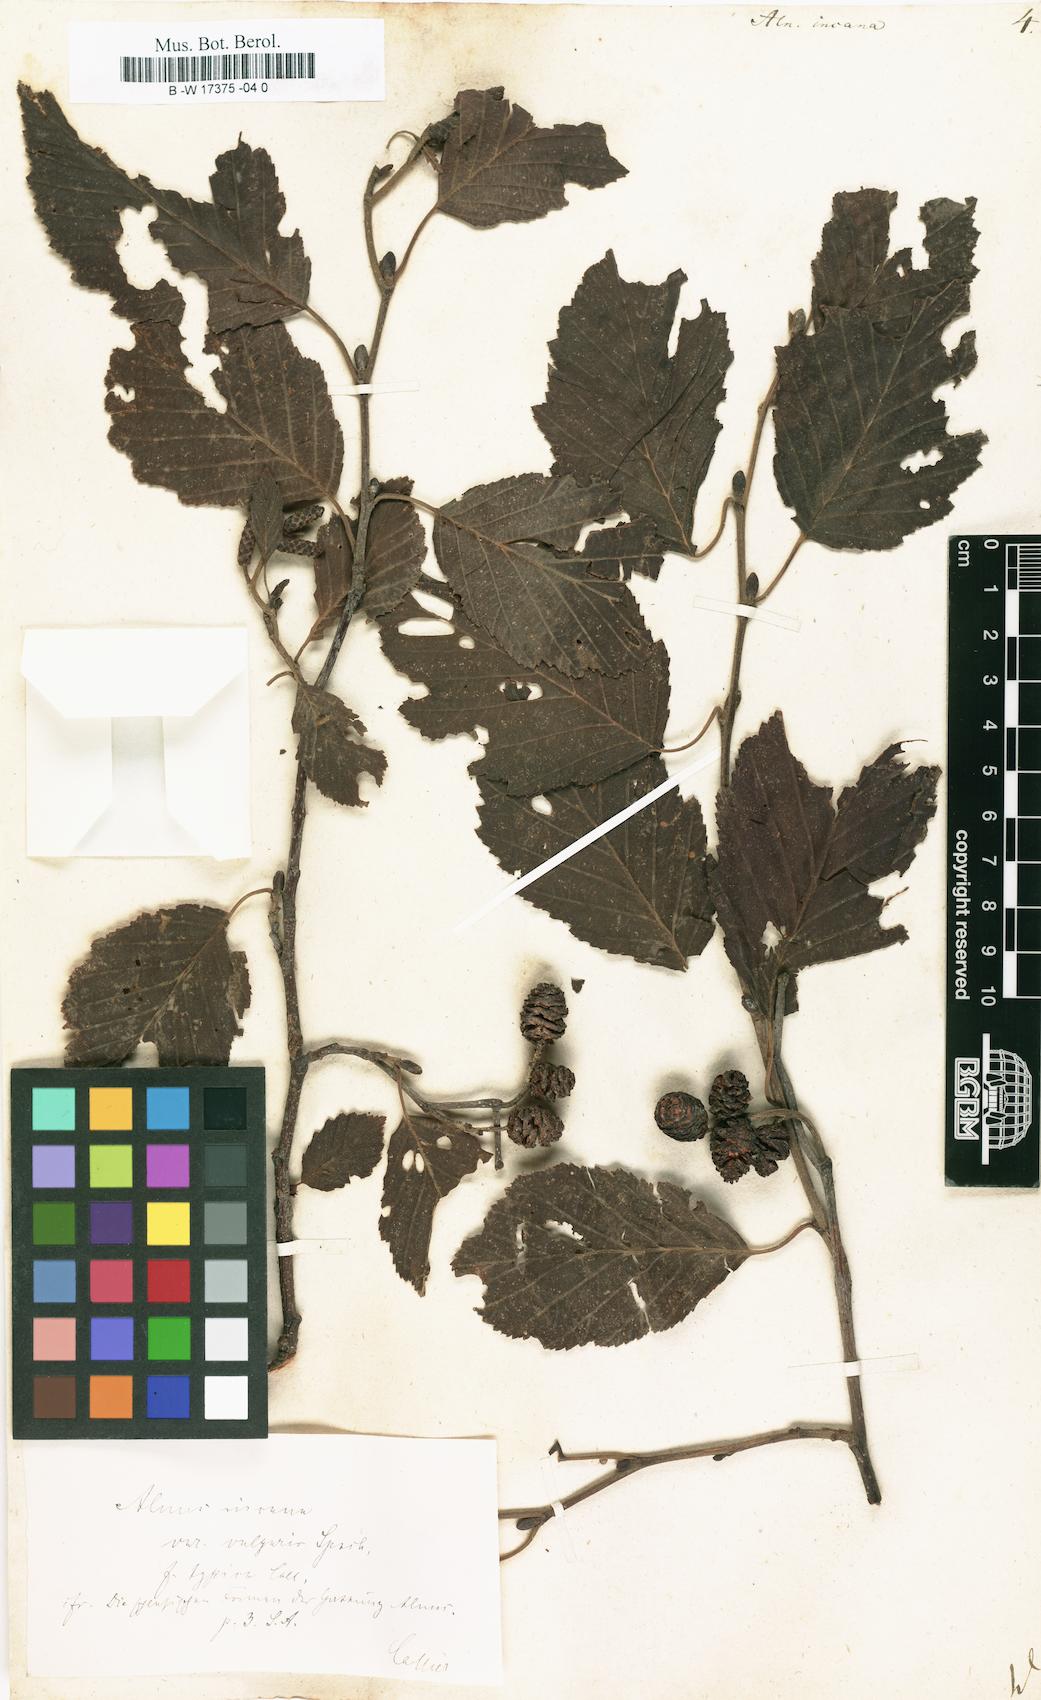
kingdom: Plantae
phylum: Tracheophyta
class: Magnoliopsida
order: Fagales
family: Betulaceae
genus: Alnus
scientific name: Alnus incana
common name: Grey alder
